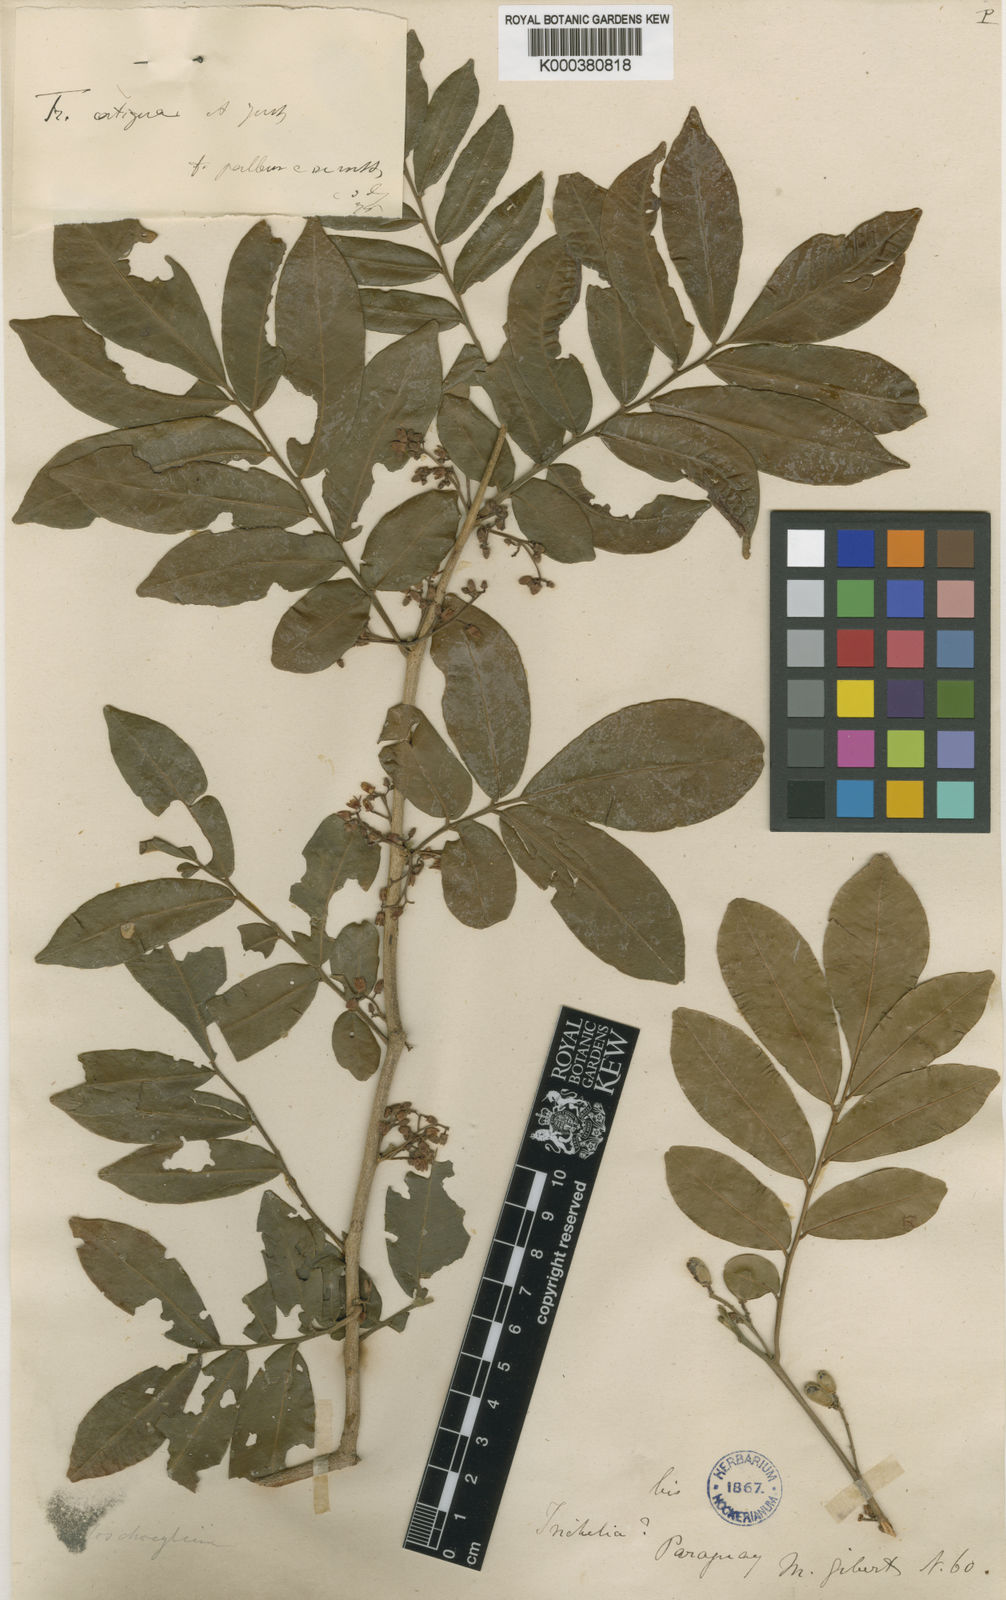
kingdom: Plantae
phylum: Tracheophyta
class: Magnoliopsida
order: Sapindales
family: Meliaceae
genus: Trichilia
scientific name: Trichilia catigua
